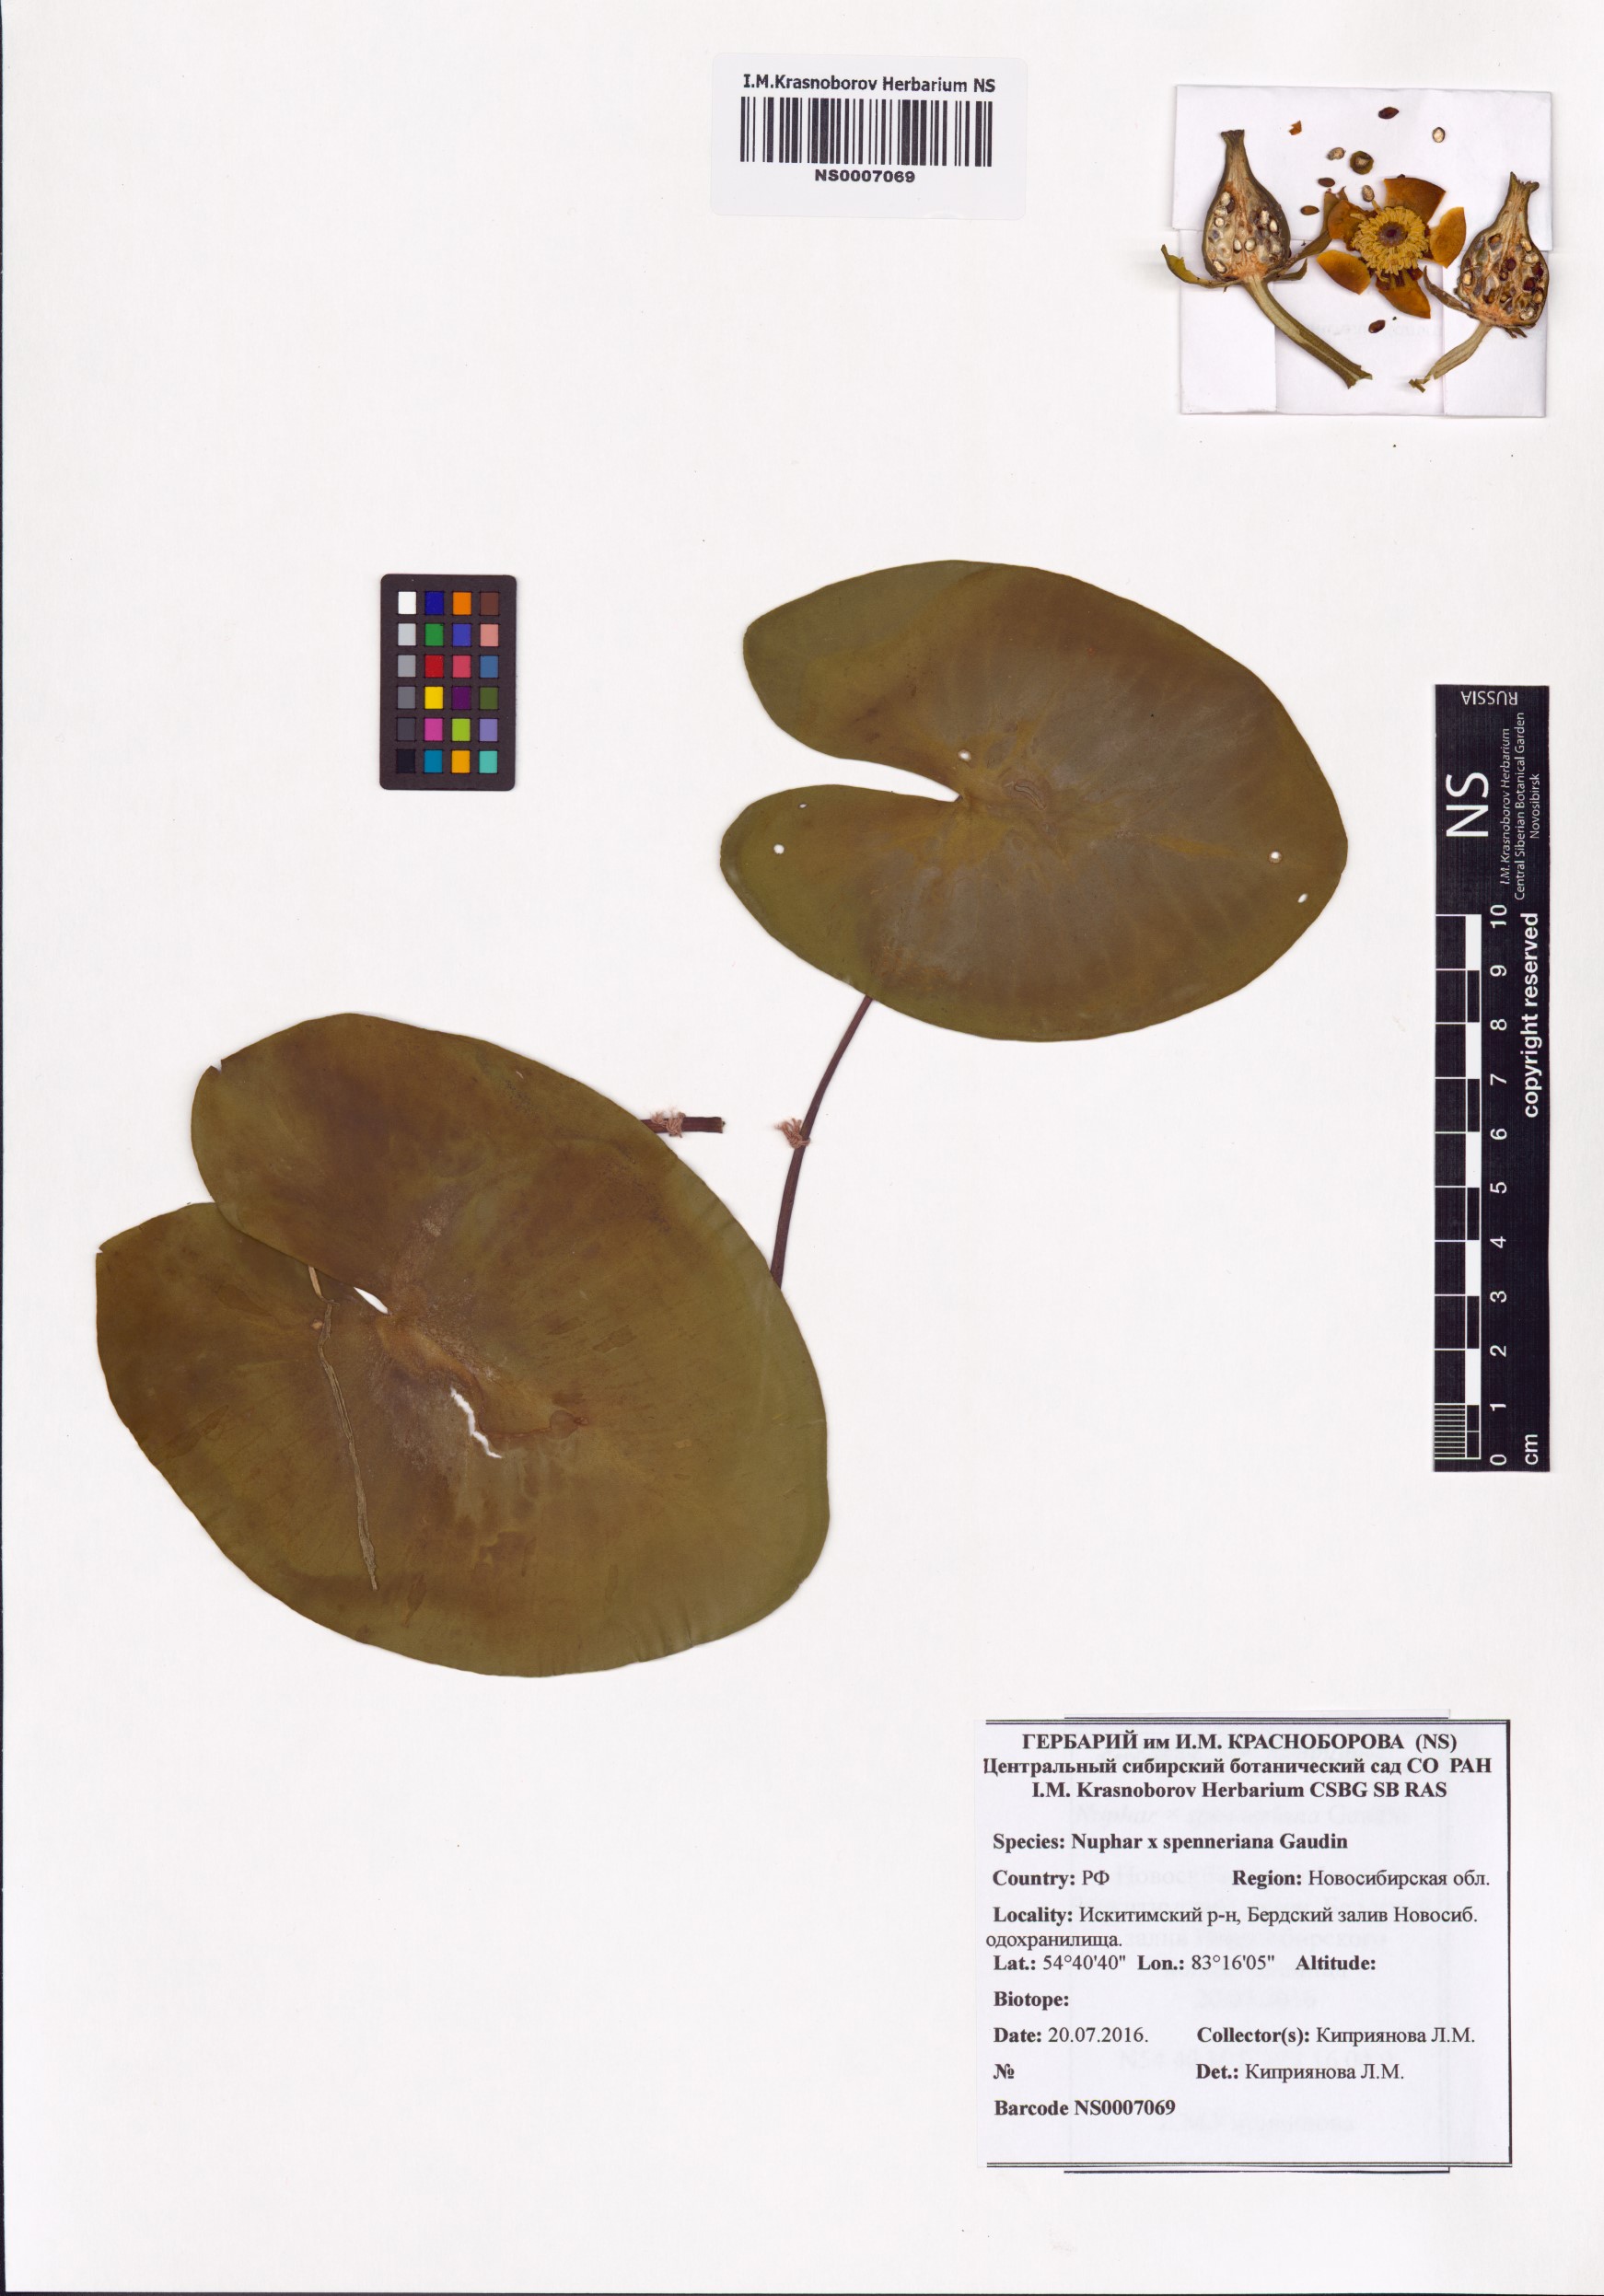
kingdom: Plantae
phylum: Tracheophyta
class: Magnoliopsida
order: Nymphaeales
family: Nymphaeaceae
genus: Nuphar
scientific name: Nuphar spenneriana
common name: Hybrid-water-lily
